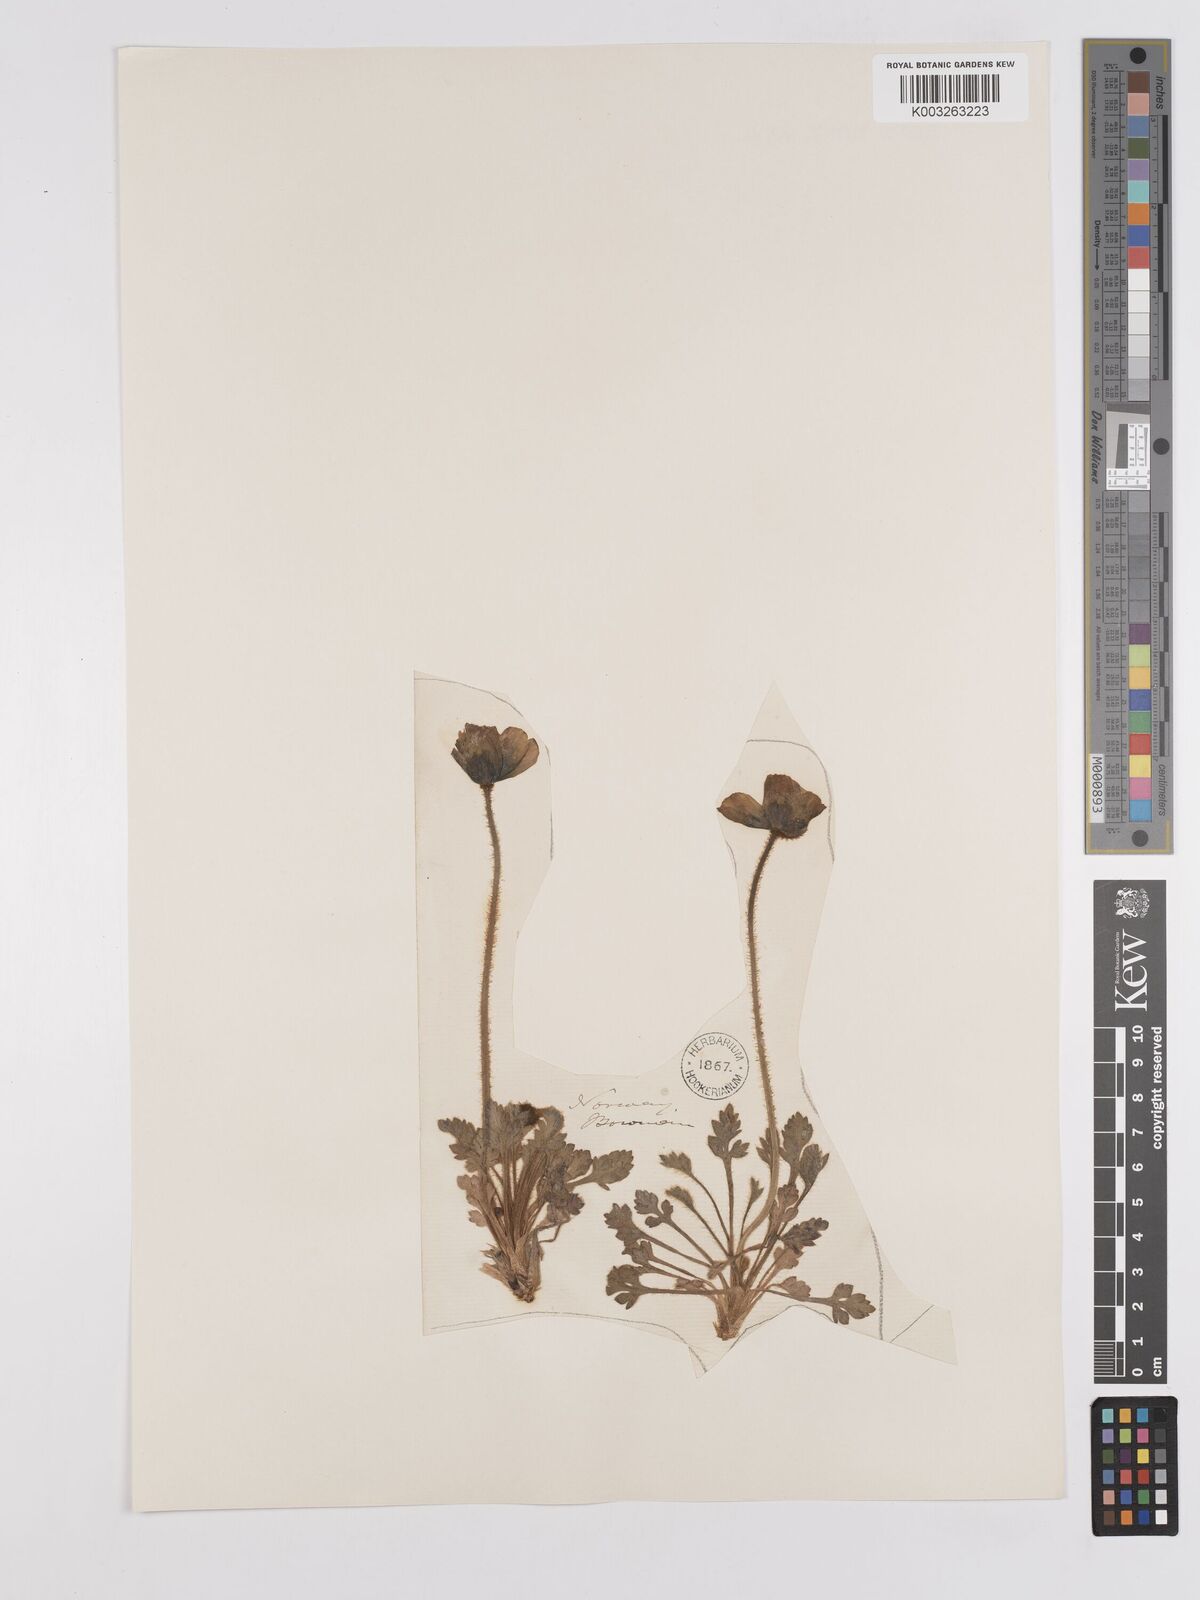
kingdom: Plantae
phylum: Tracheophyta
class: Magnoliopsida
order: Ranunculales
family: Papaveraceae
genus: Papaver
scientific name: Papaver radicatum
